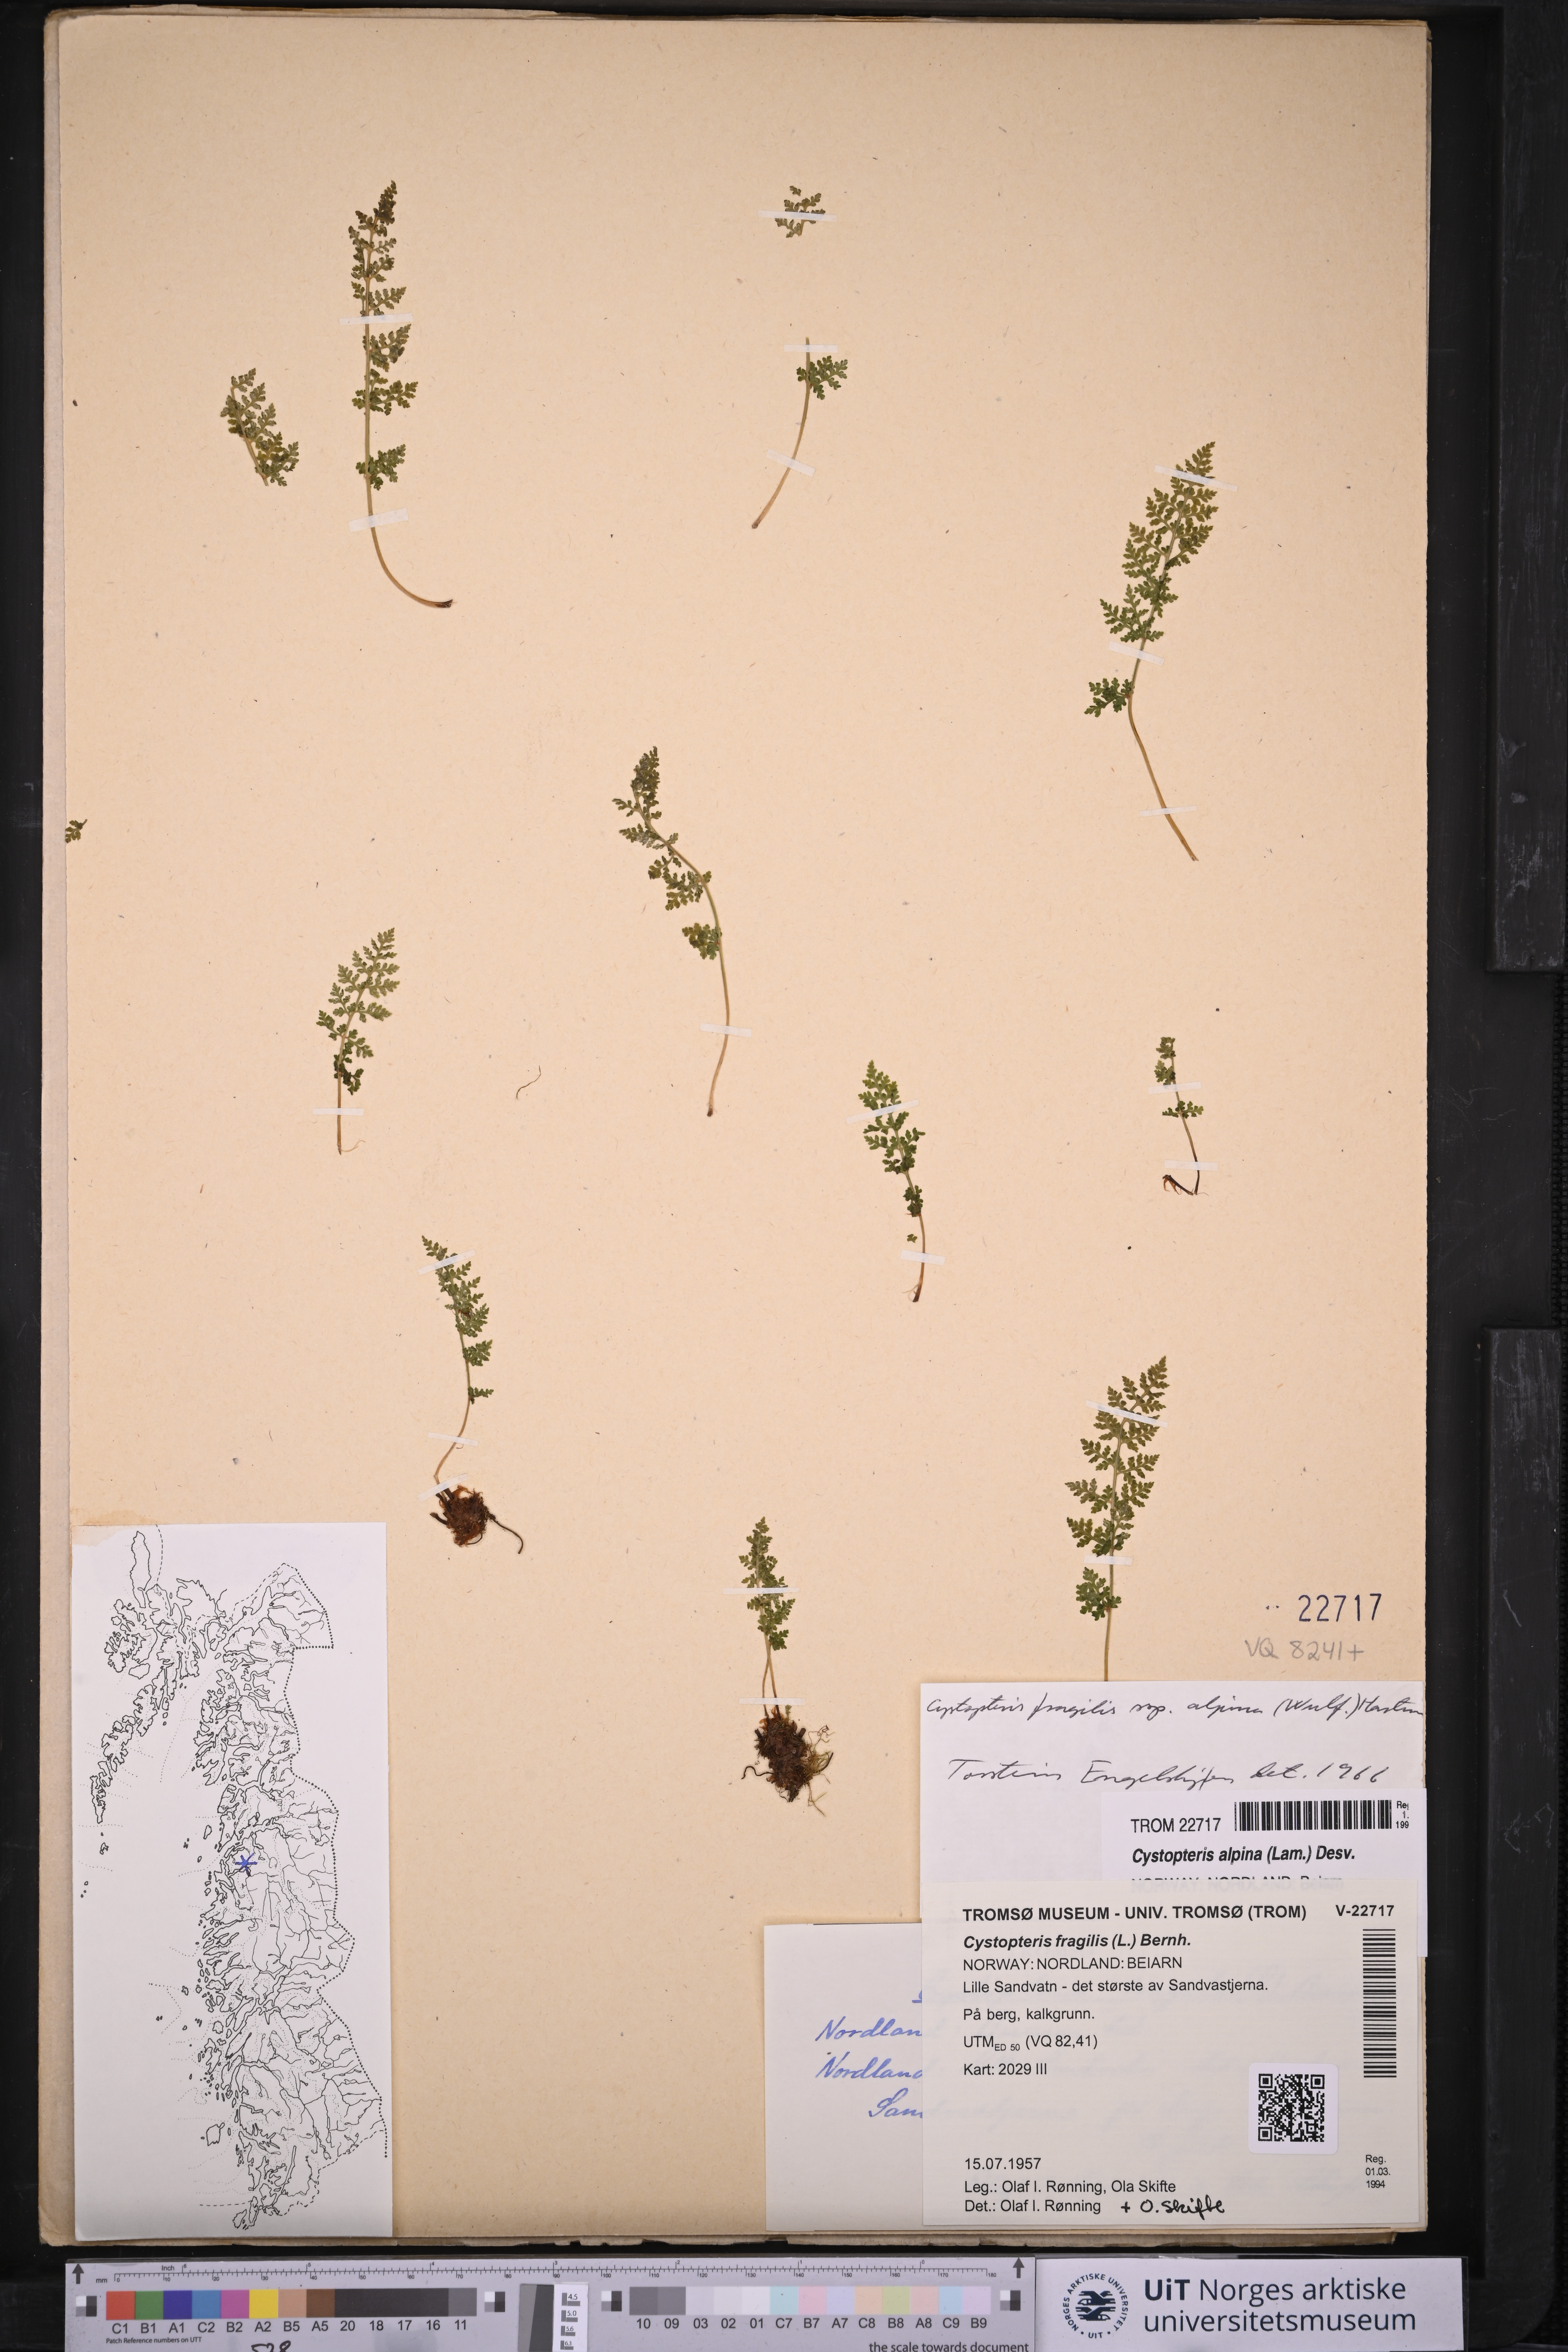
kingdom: Plantae
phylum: Tracheophyta
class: Polypodiopsida
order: Polypodiales
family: Cystopteridaceae
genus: Cystopteris
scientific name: Cystopteris alpina
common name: Alpine bladder-fern
